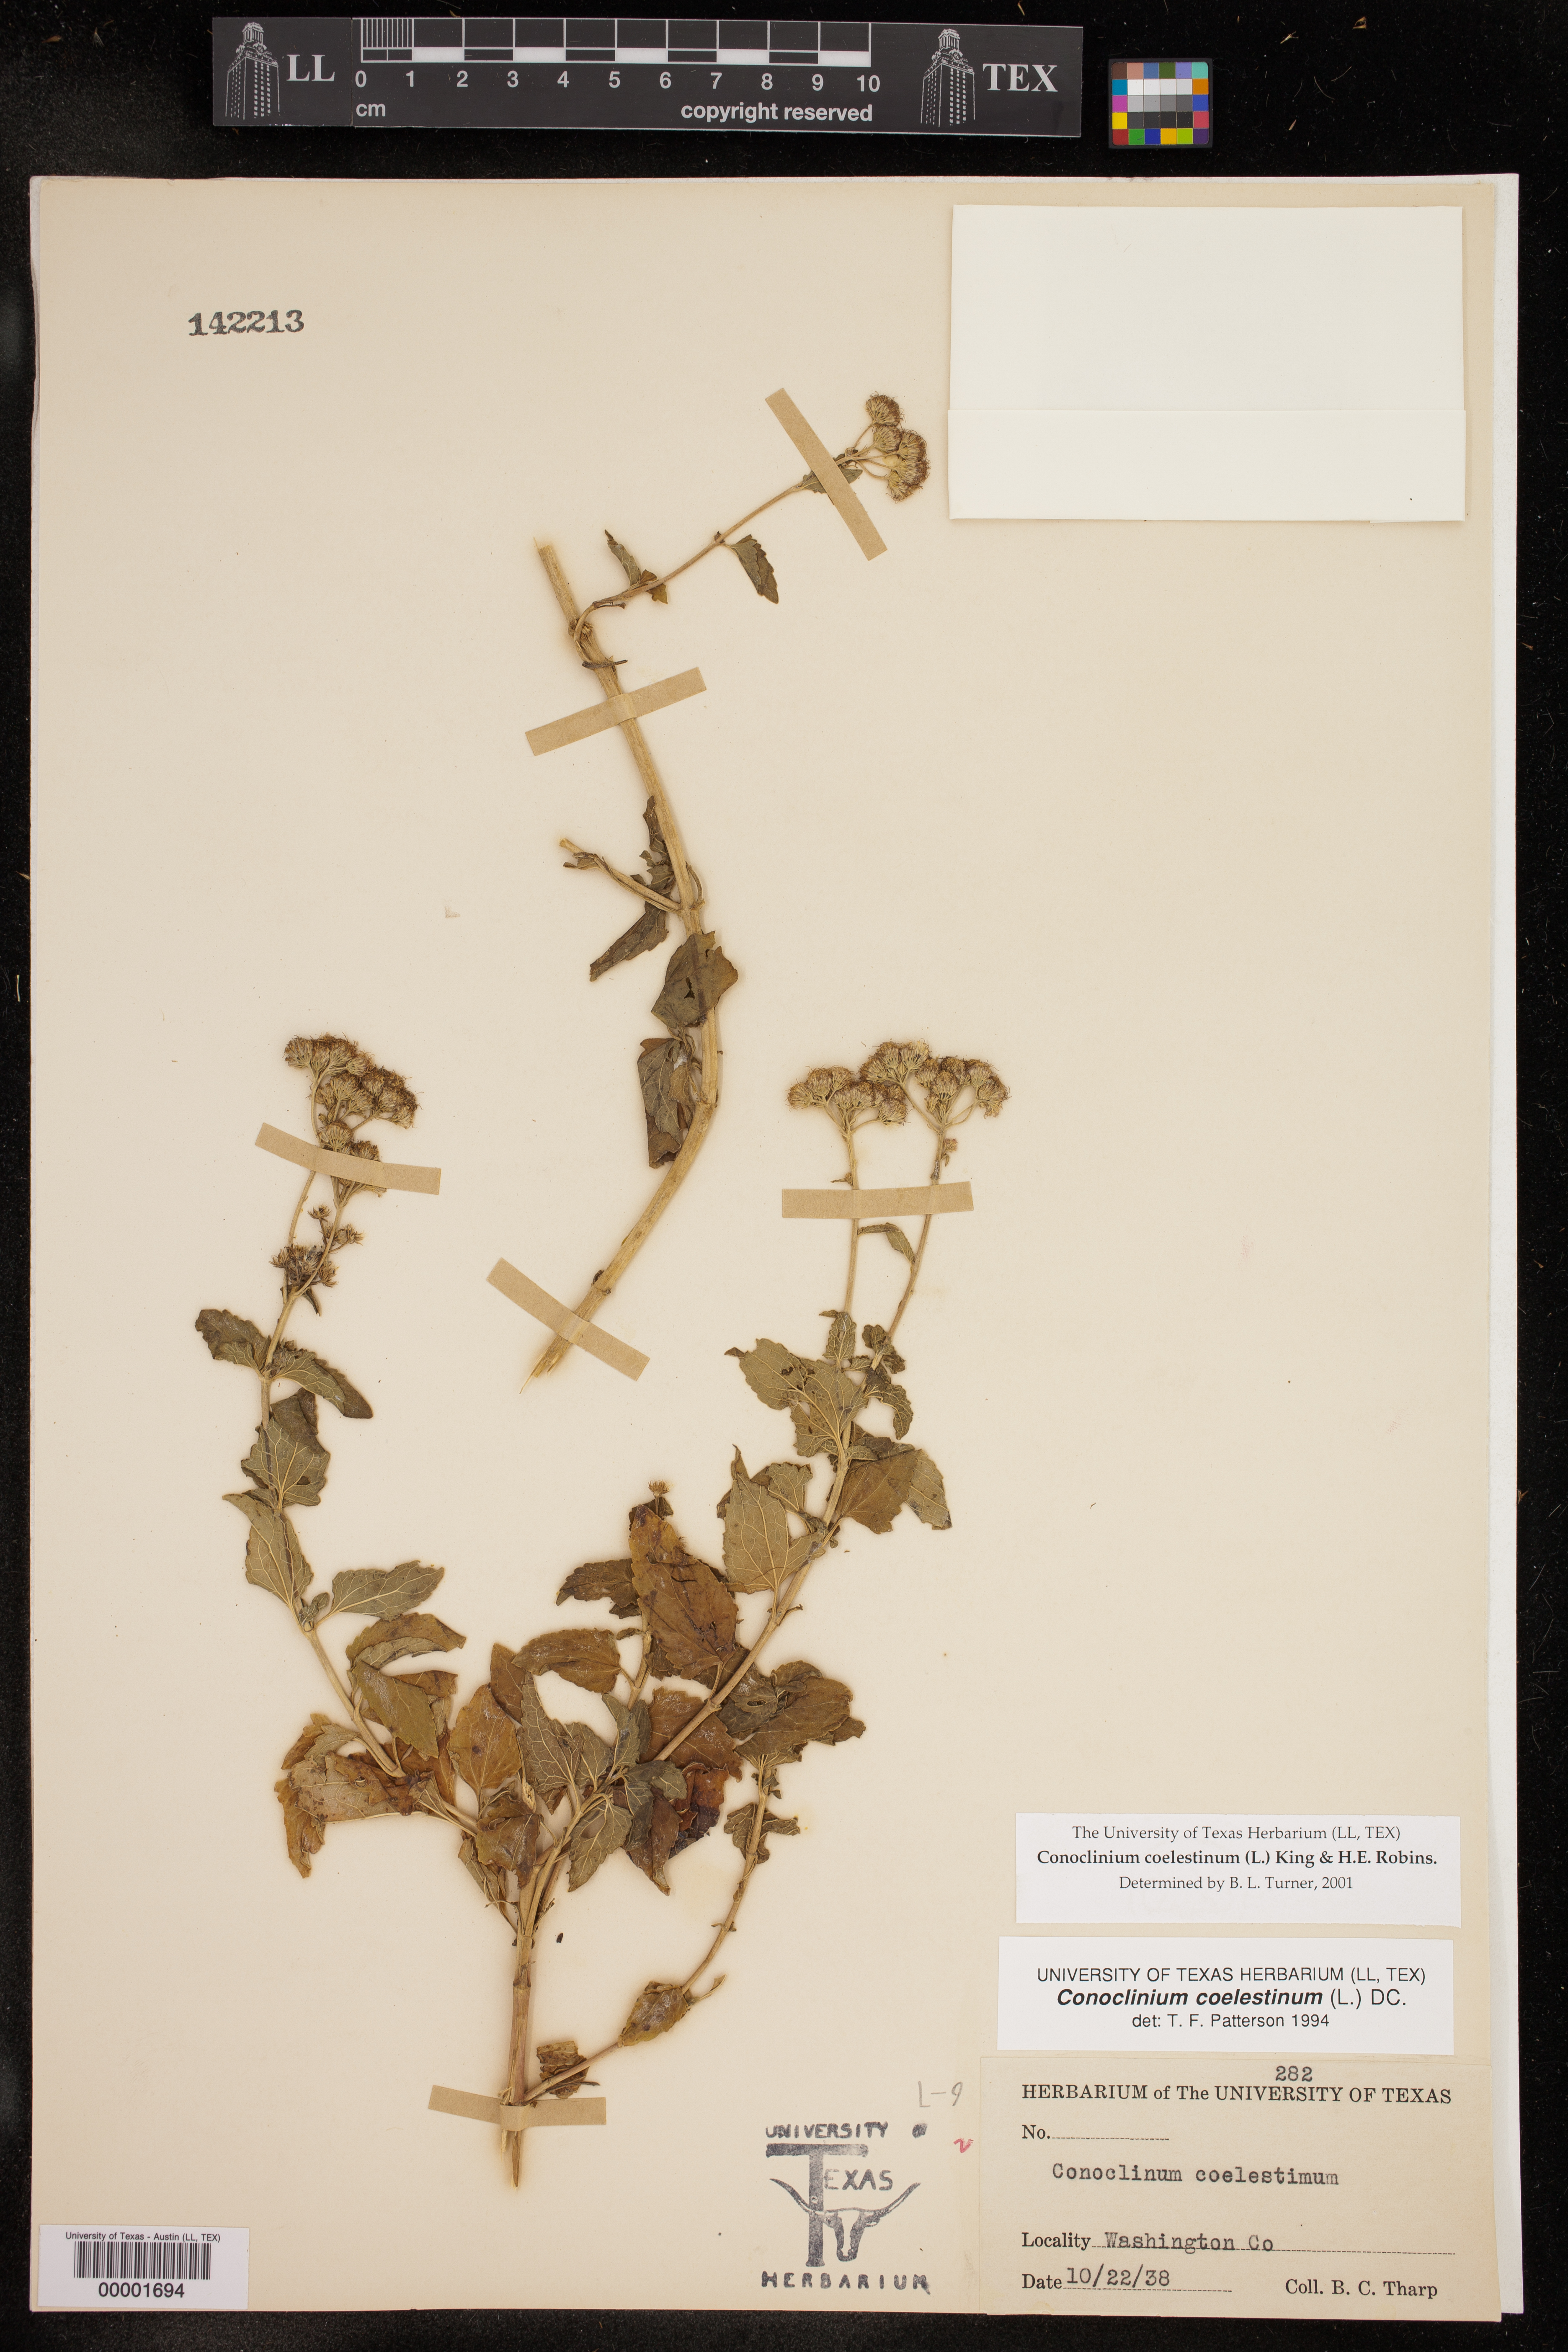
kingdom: Plantae
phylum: Tracheophyta
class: Magnoliopsida
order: Asterales
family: Asteraceae
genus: Conoclinium
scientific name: Conoclinium coelestinum
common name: Blue mistflower
